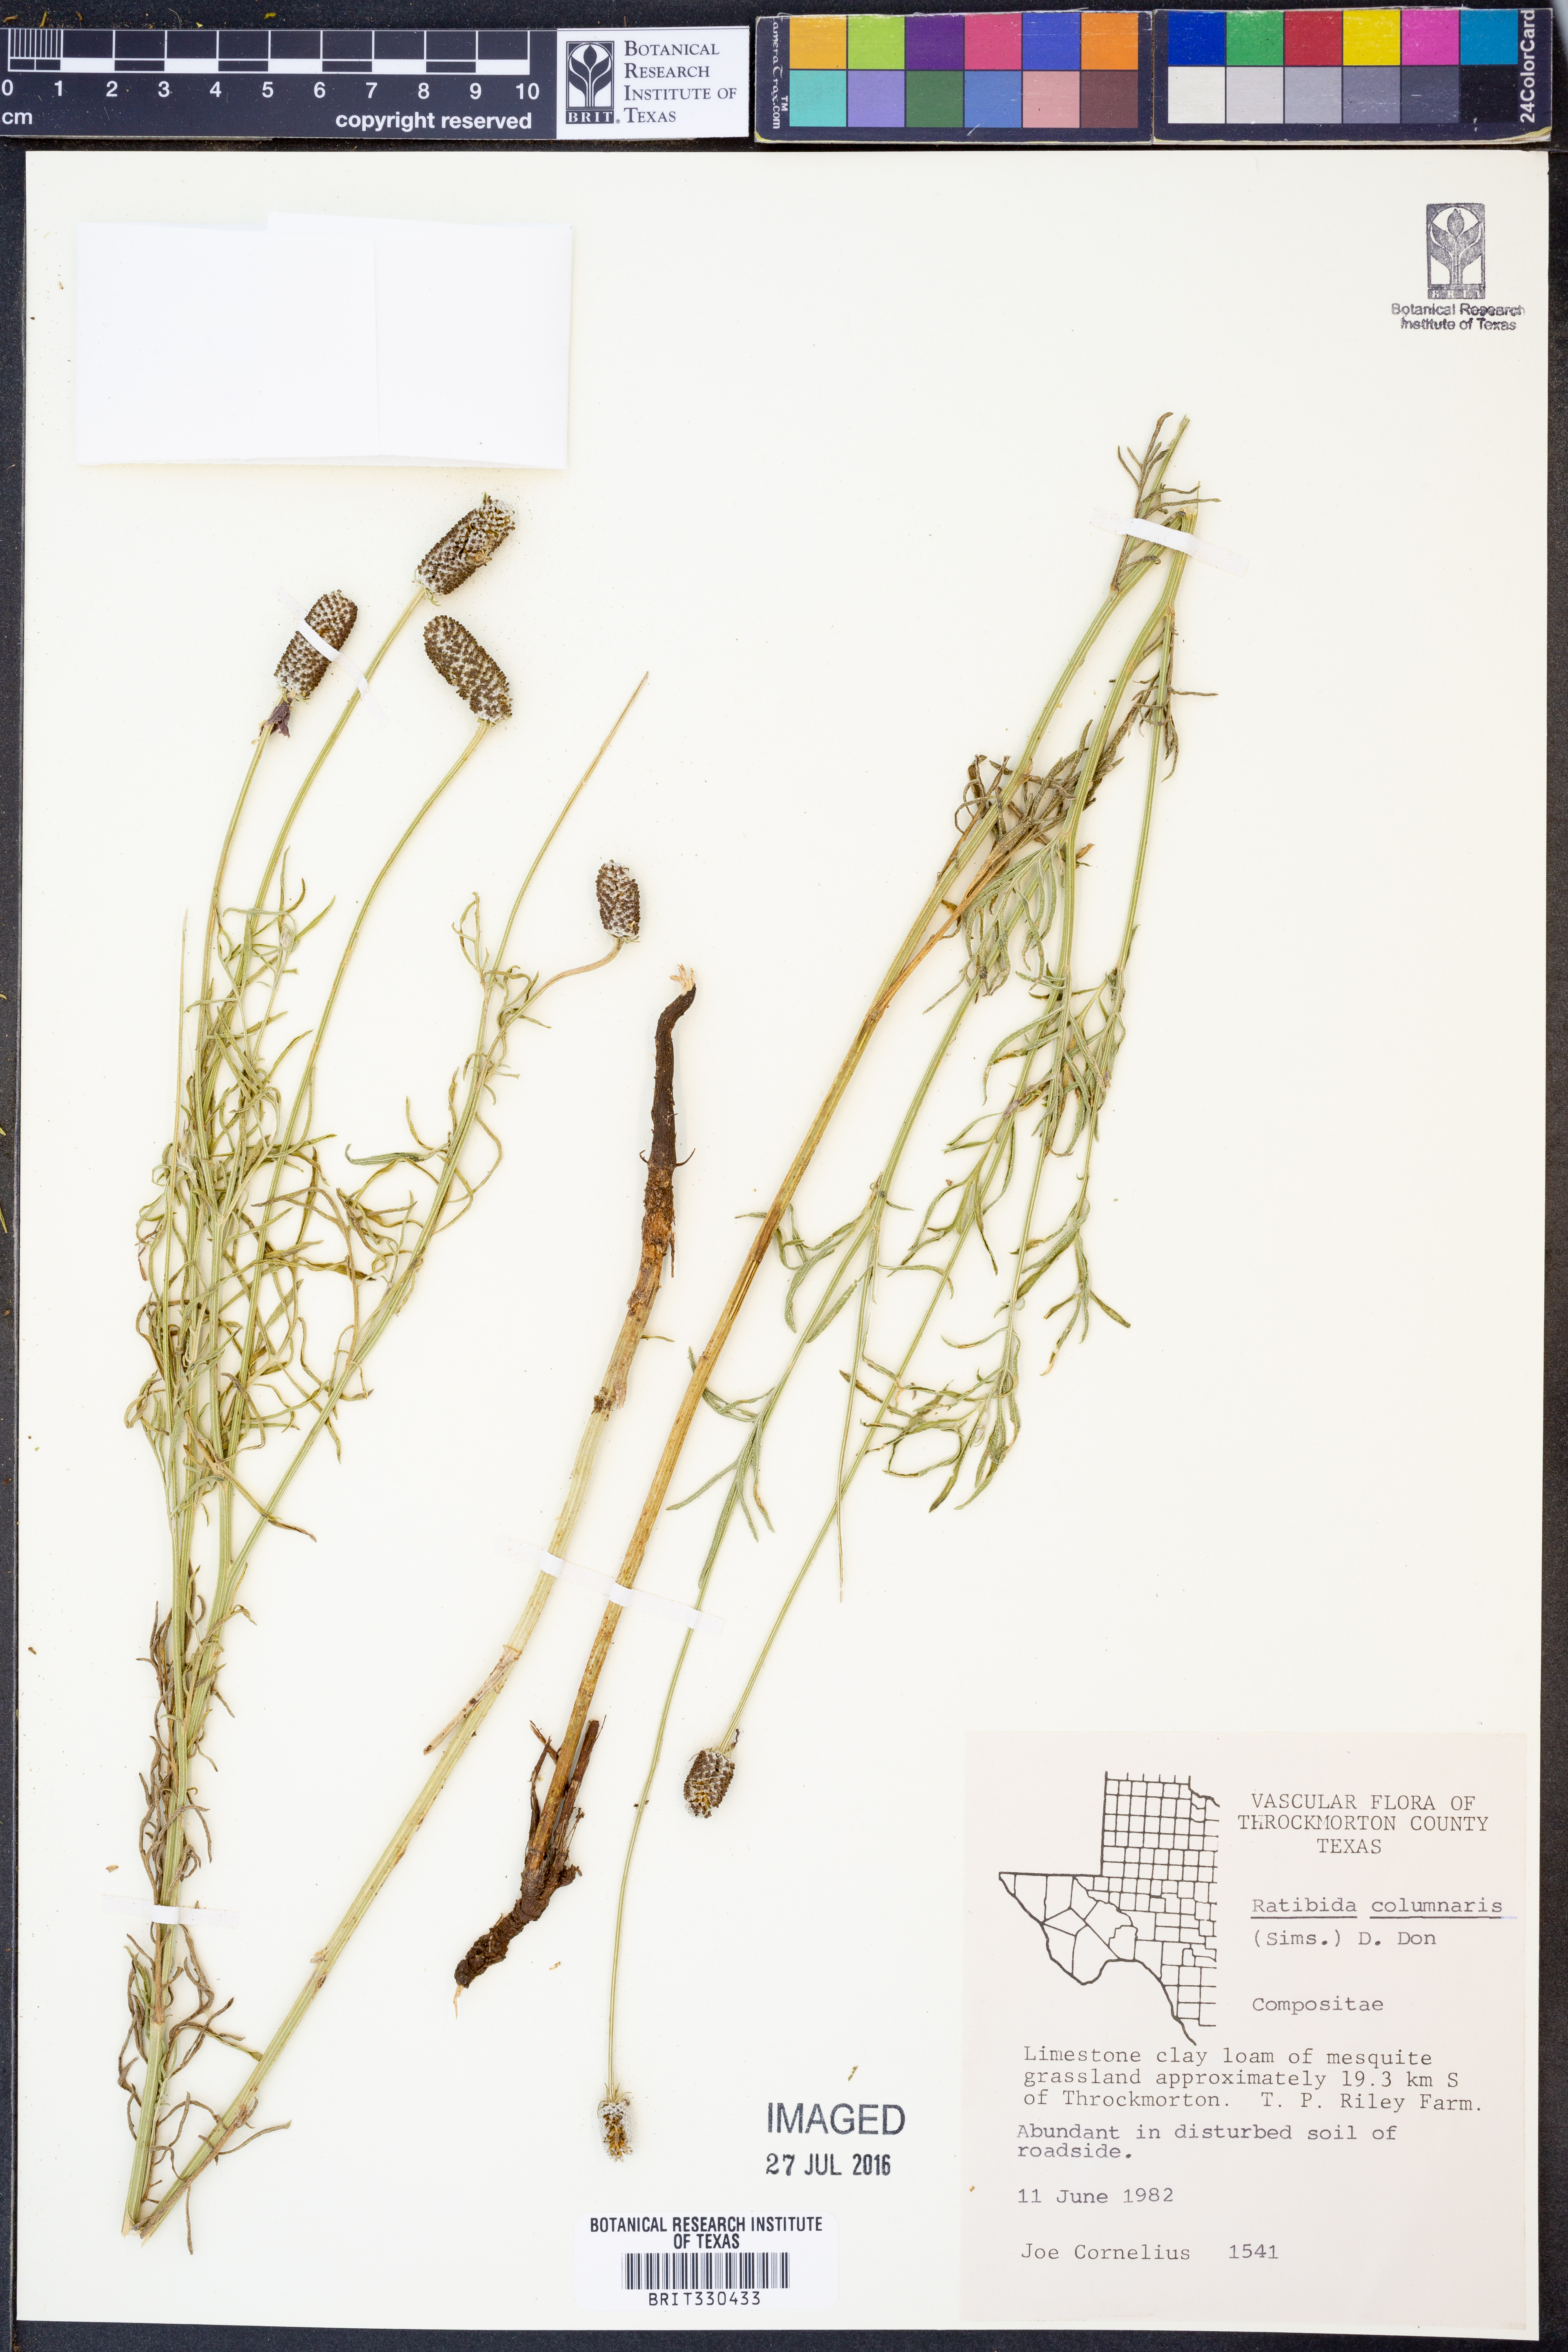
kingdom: Plantae
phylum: Tracheophyta
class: Magnoliopsida
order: Asterales
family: Asteraceae
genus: Ratibida
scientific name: Ratibida columnifera
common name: Prairie coneflower
